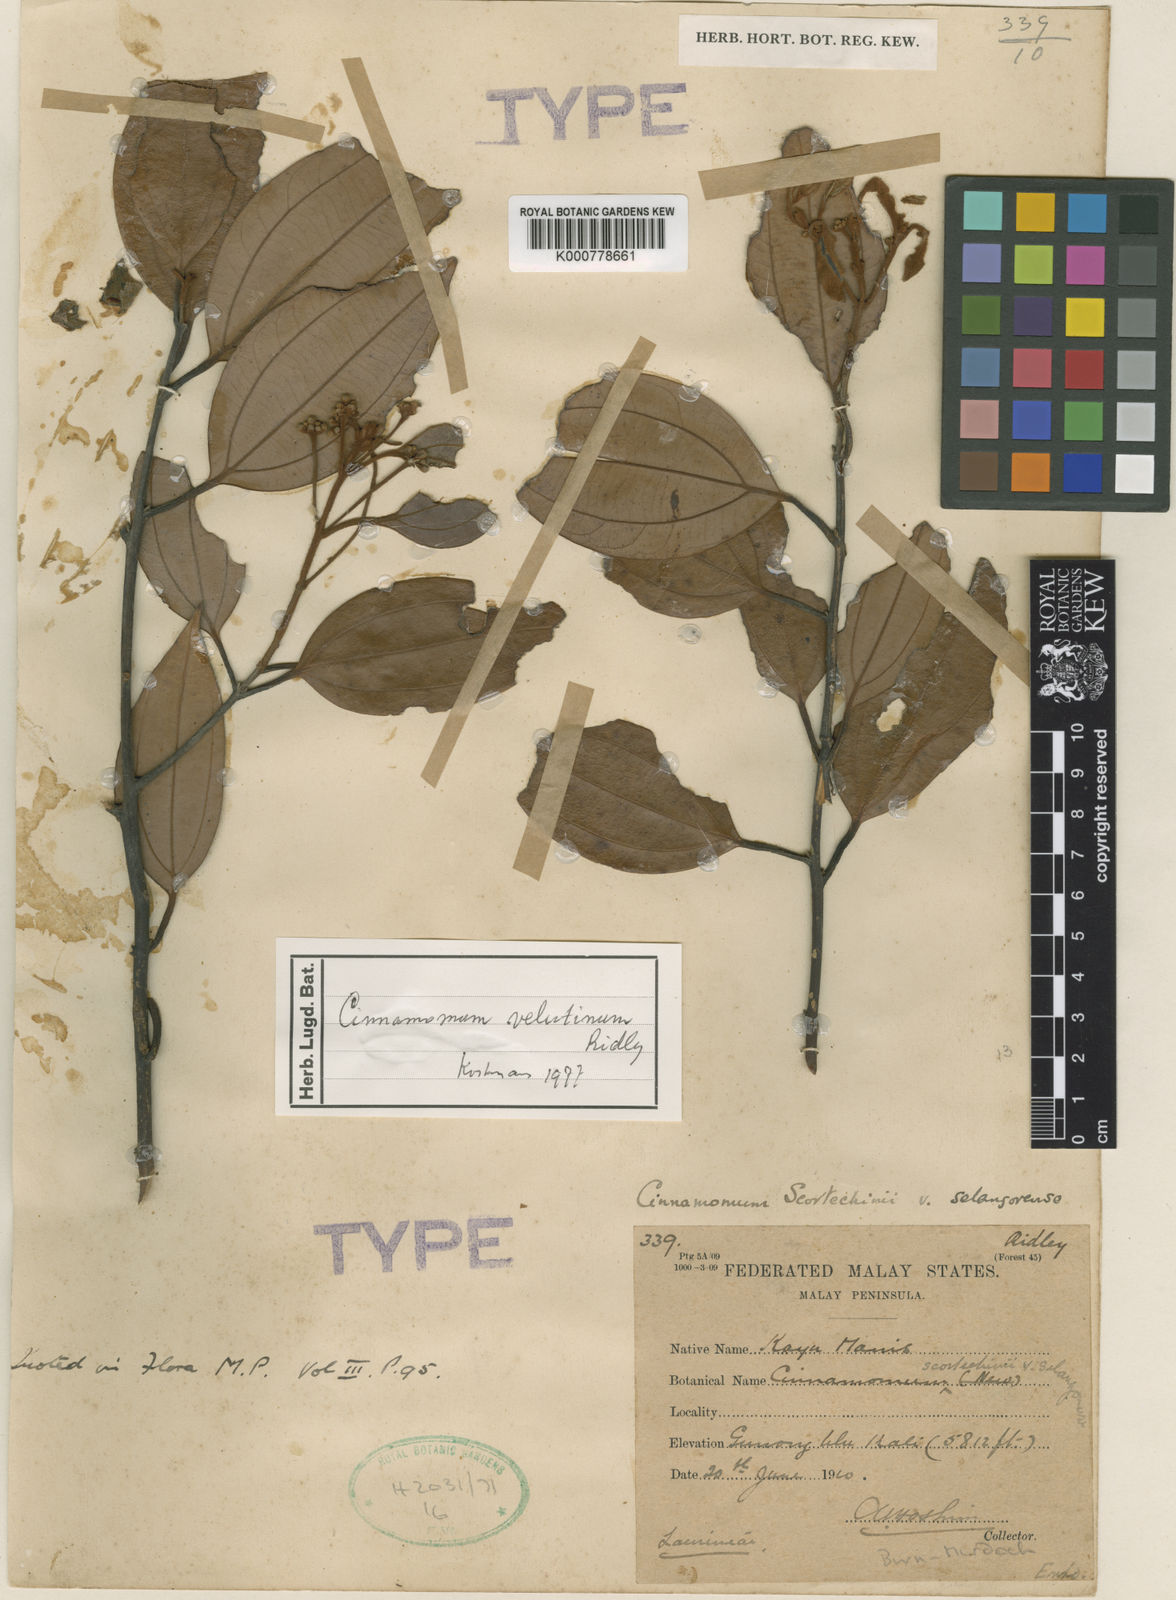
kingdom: Plantae
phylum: Tracheophyta
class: Magnoliopsida
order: Laurales
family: Lauraceae
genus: Cinnamomum
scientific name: Cinnamomum scortechinii
